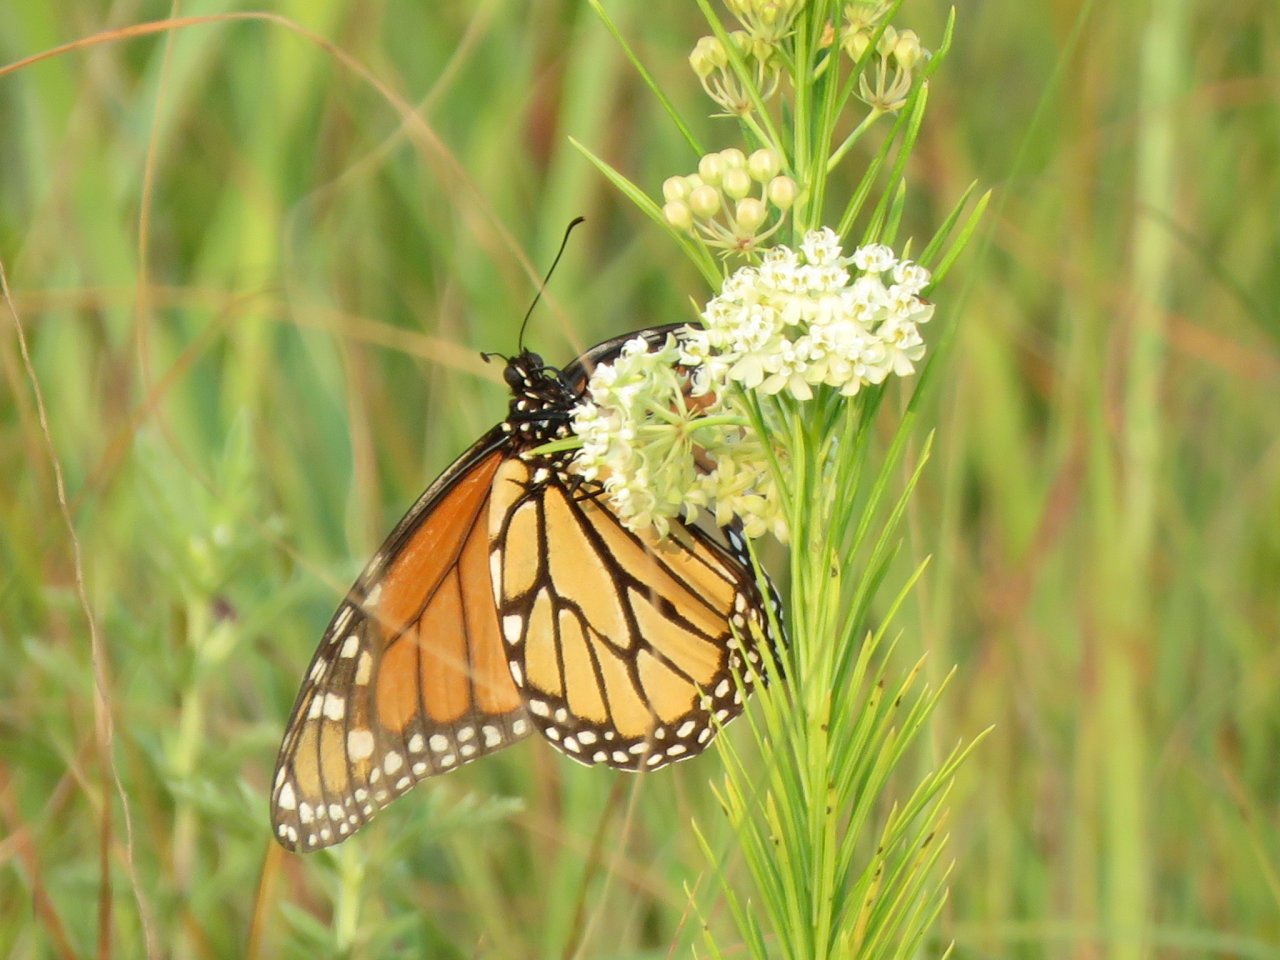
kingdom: Animalia
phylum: Arthropoda
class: Insecta
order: Lepidoptera
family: Nymphalidae
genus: Danaus
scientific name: Danaus plexippus
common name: Monarch
